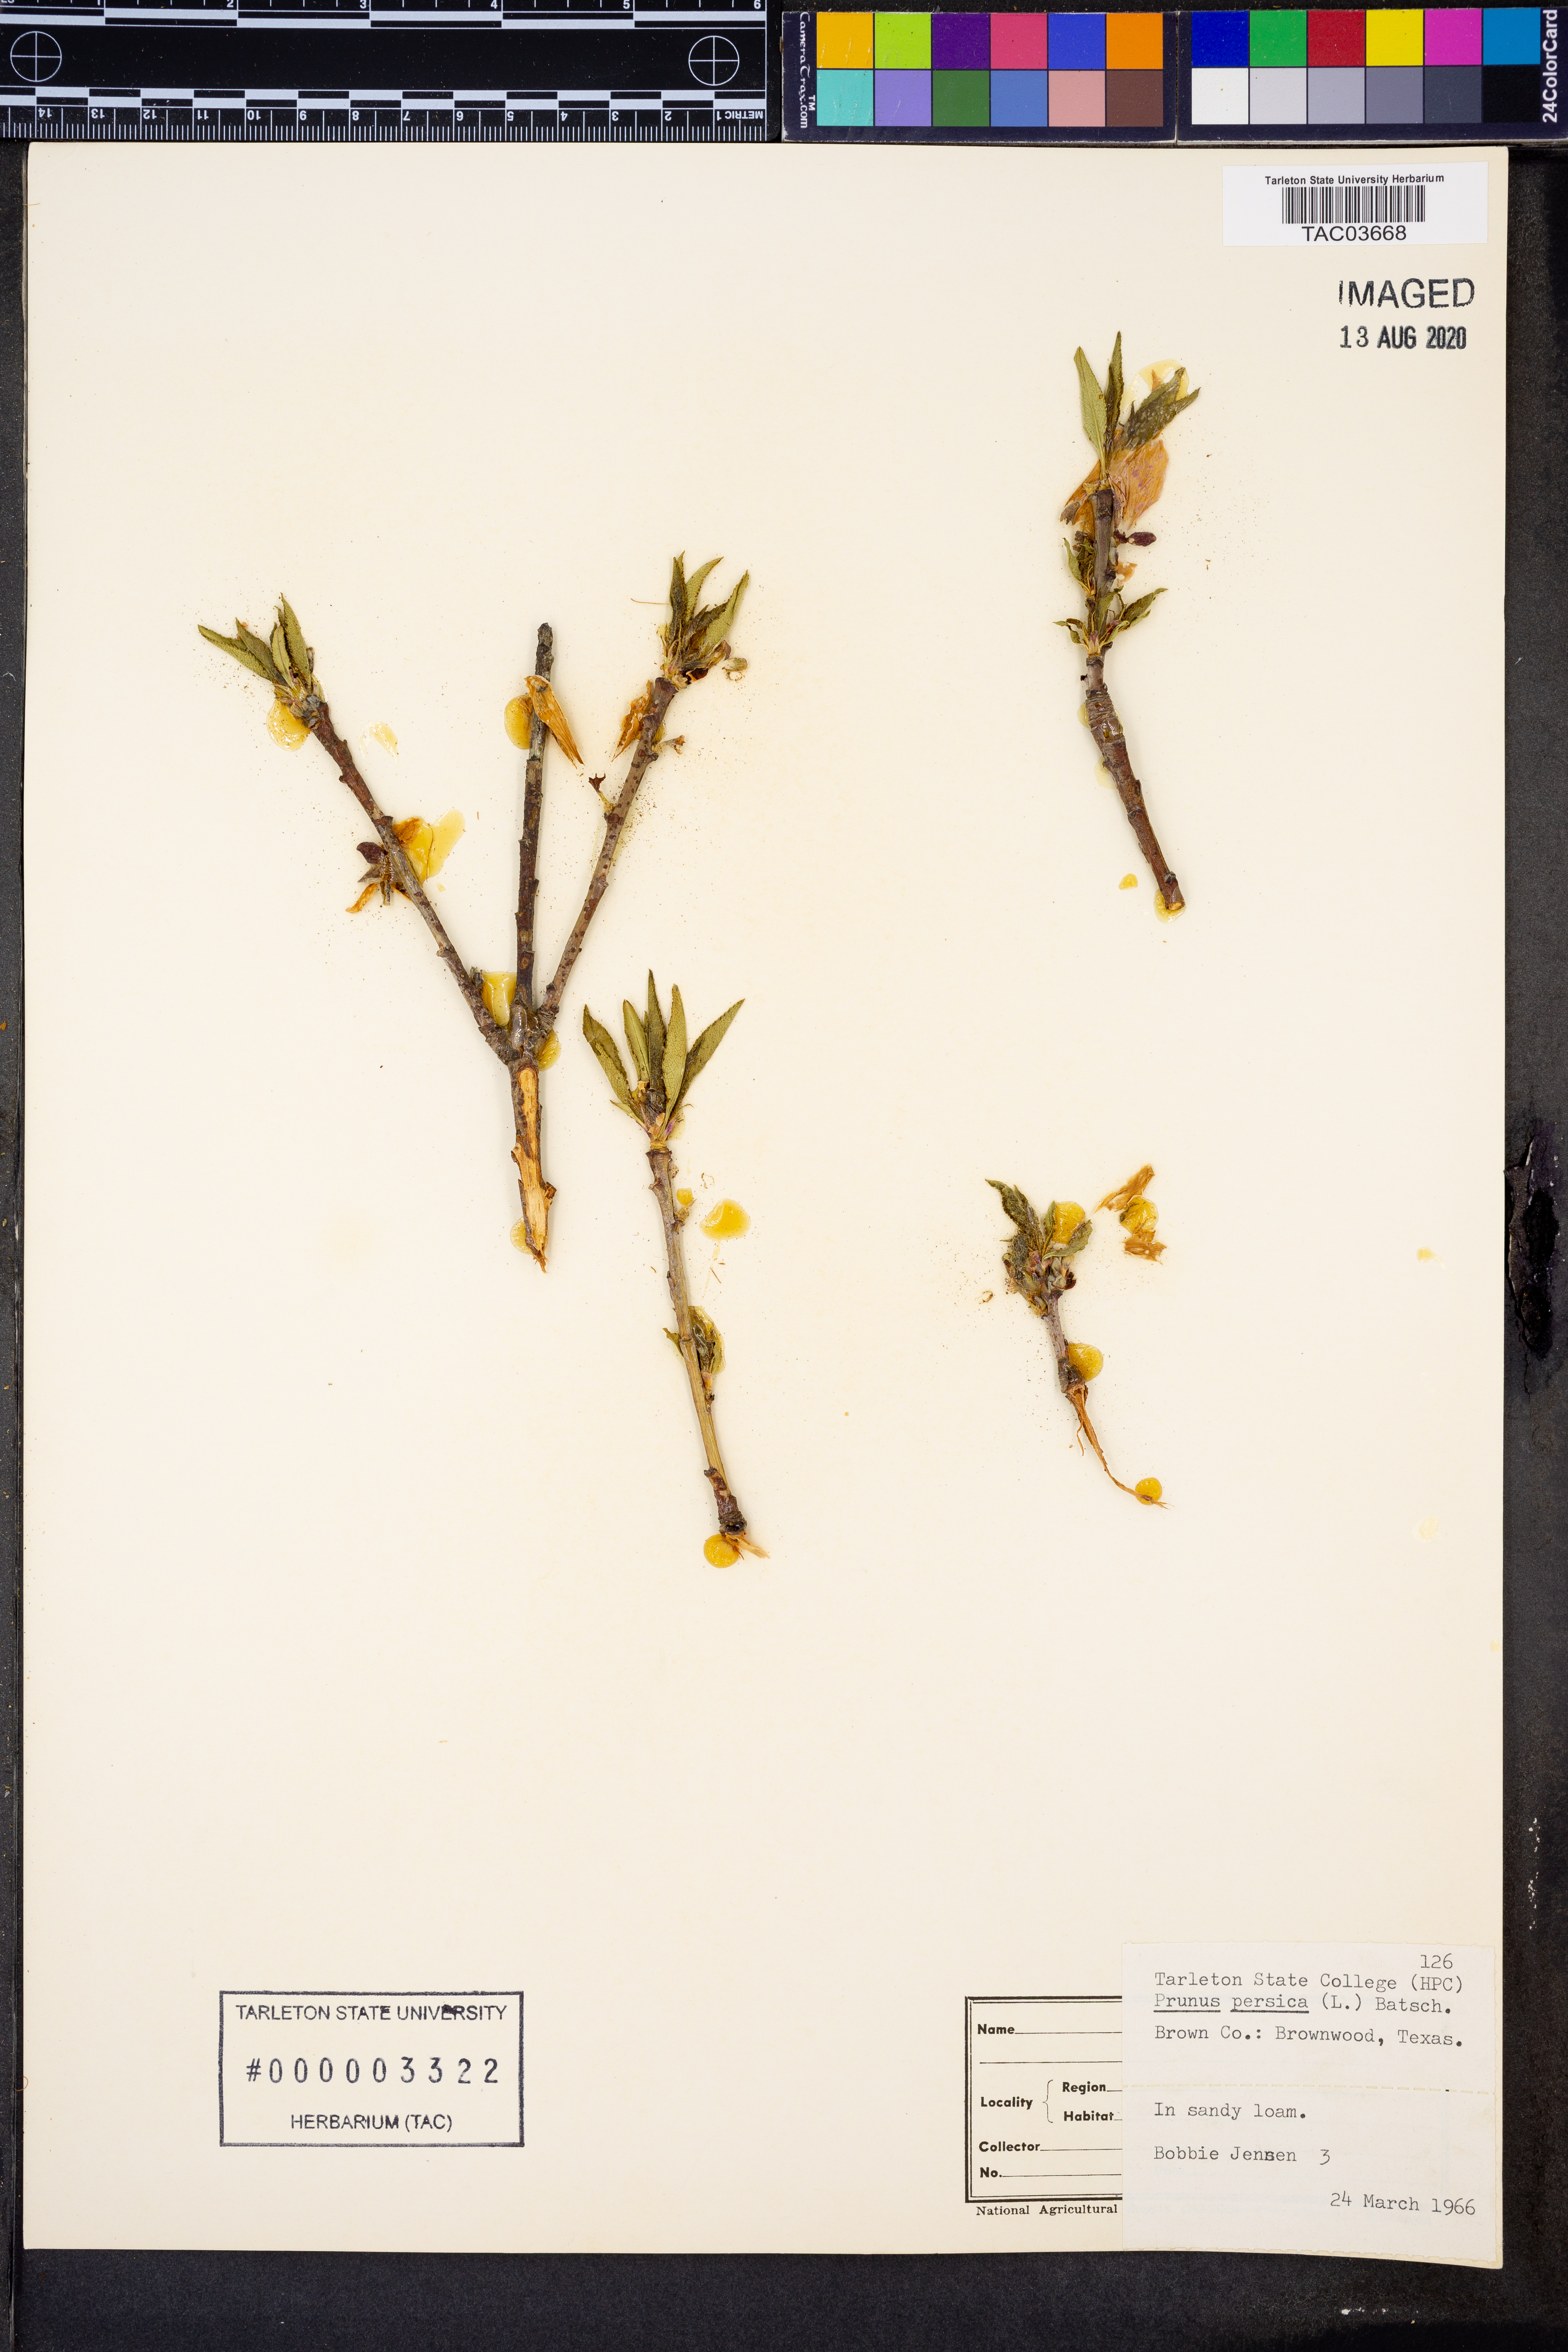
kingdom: Plantae
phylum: Tracheophyta
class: Magnoliopsida
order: Rosales
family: Rosaceae
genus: Prunus
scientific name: Prunus persica
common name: Peach
